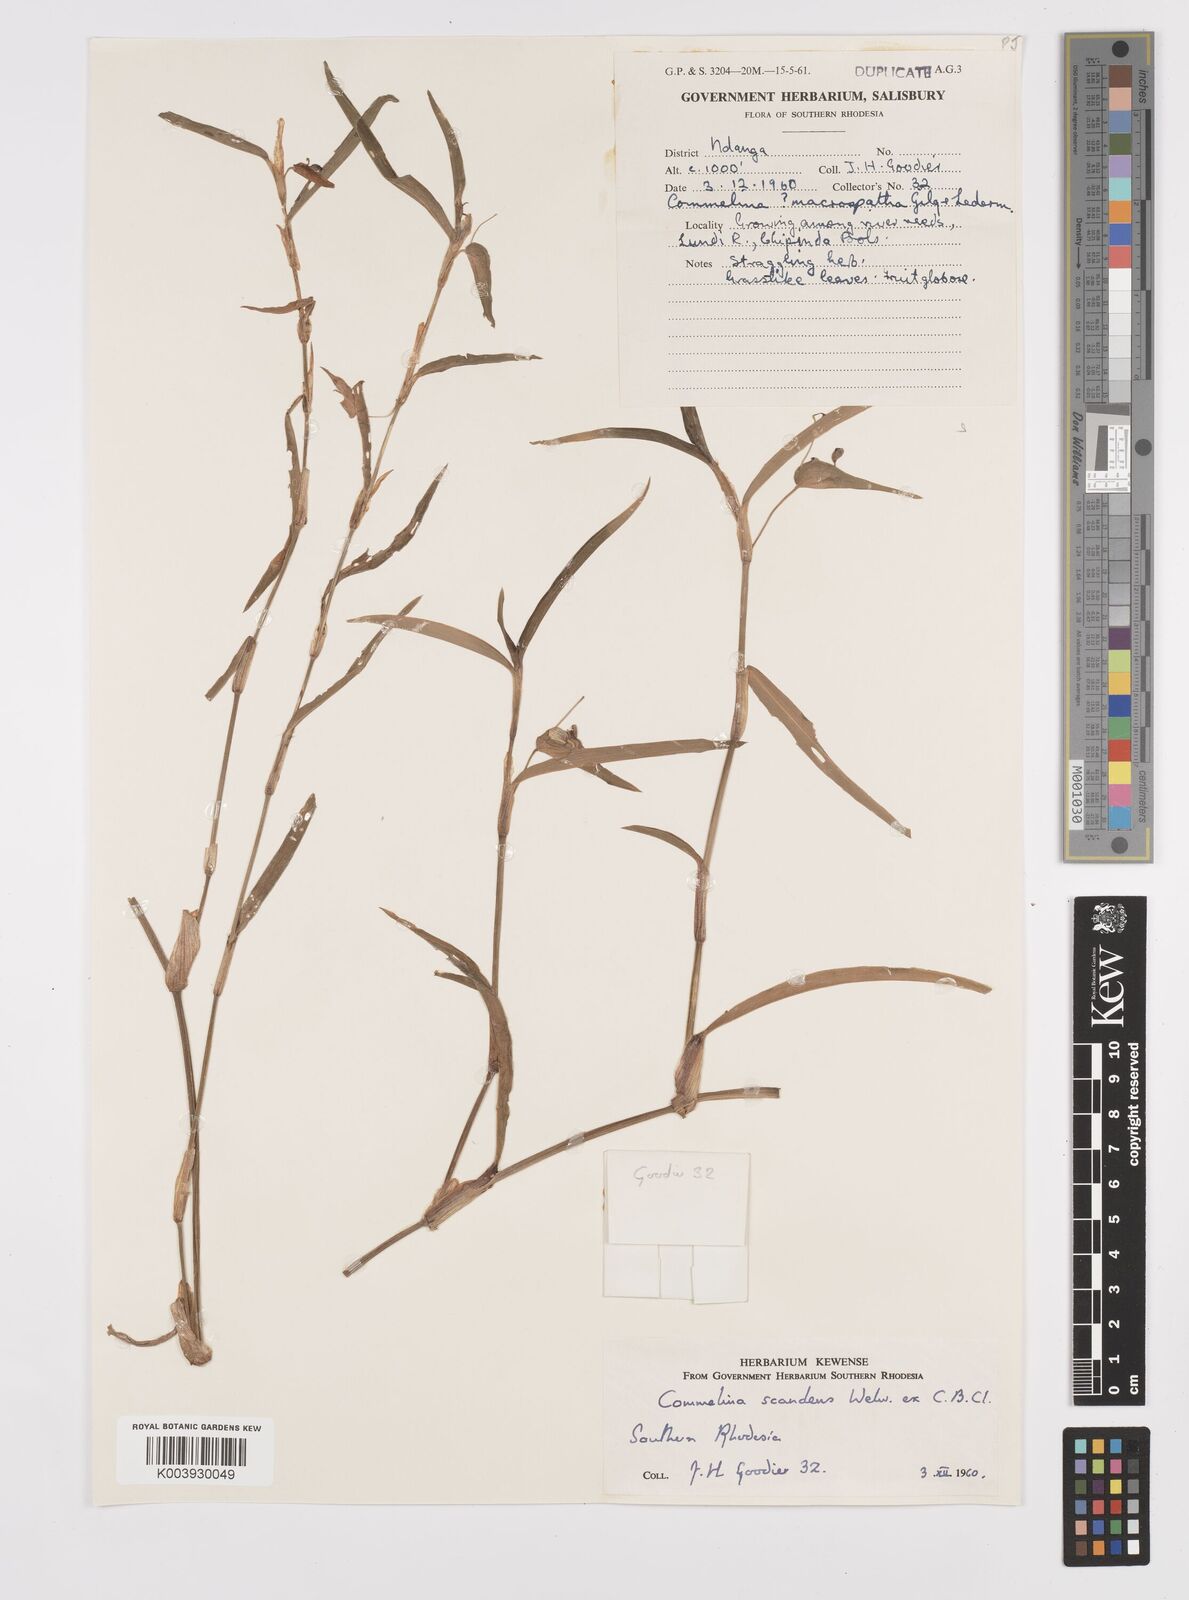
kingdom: Plantae
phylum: Tracheophyta
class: Liliopsida
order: Commelinales
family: Commelinaceae
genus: Commelina
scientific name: Commelina diffusa
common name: Climbing dayflower
